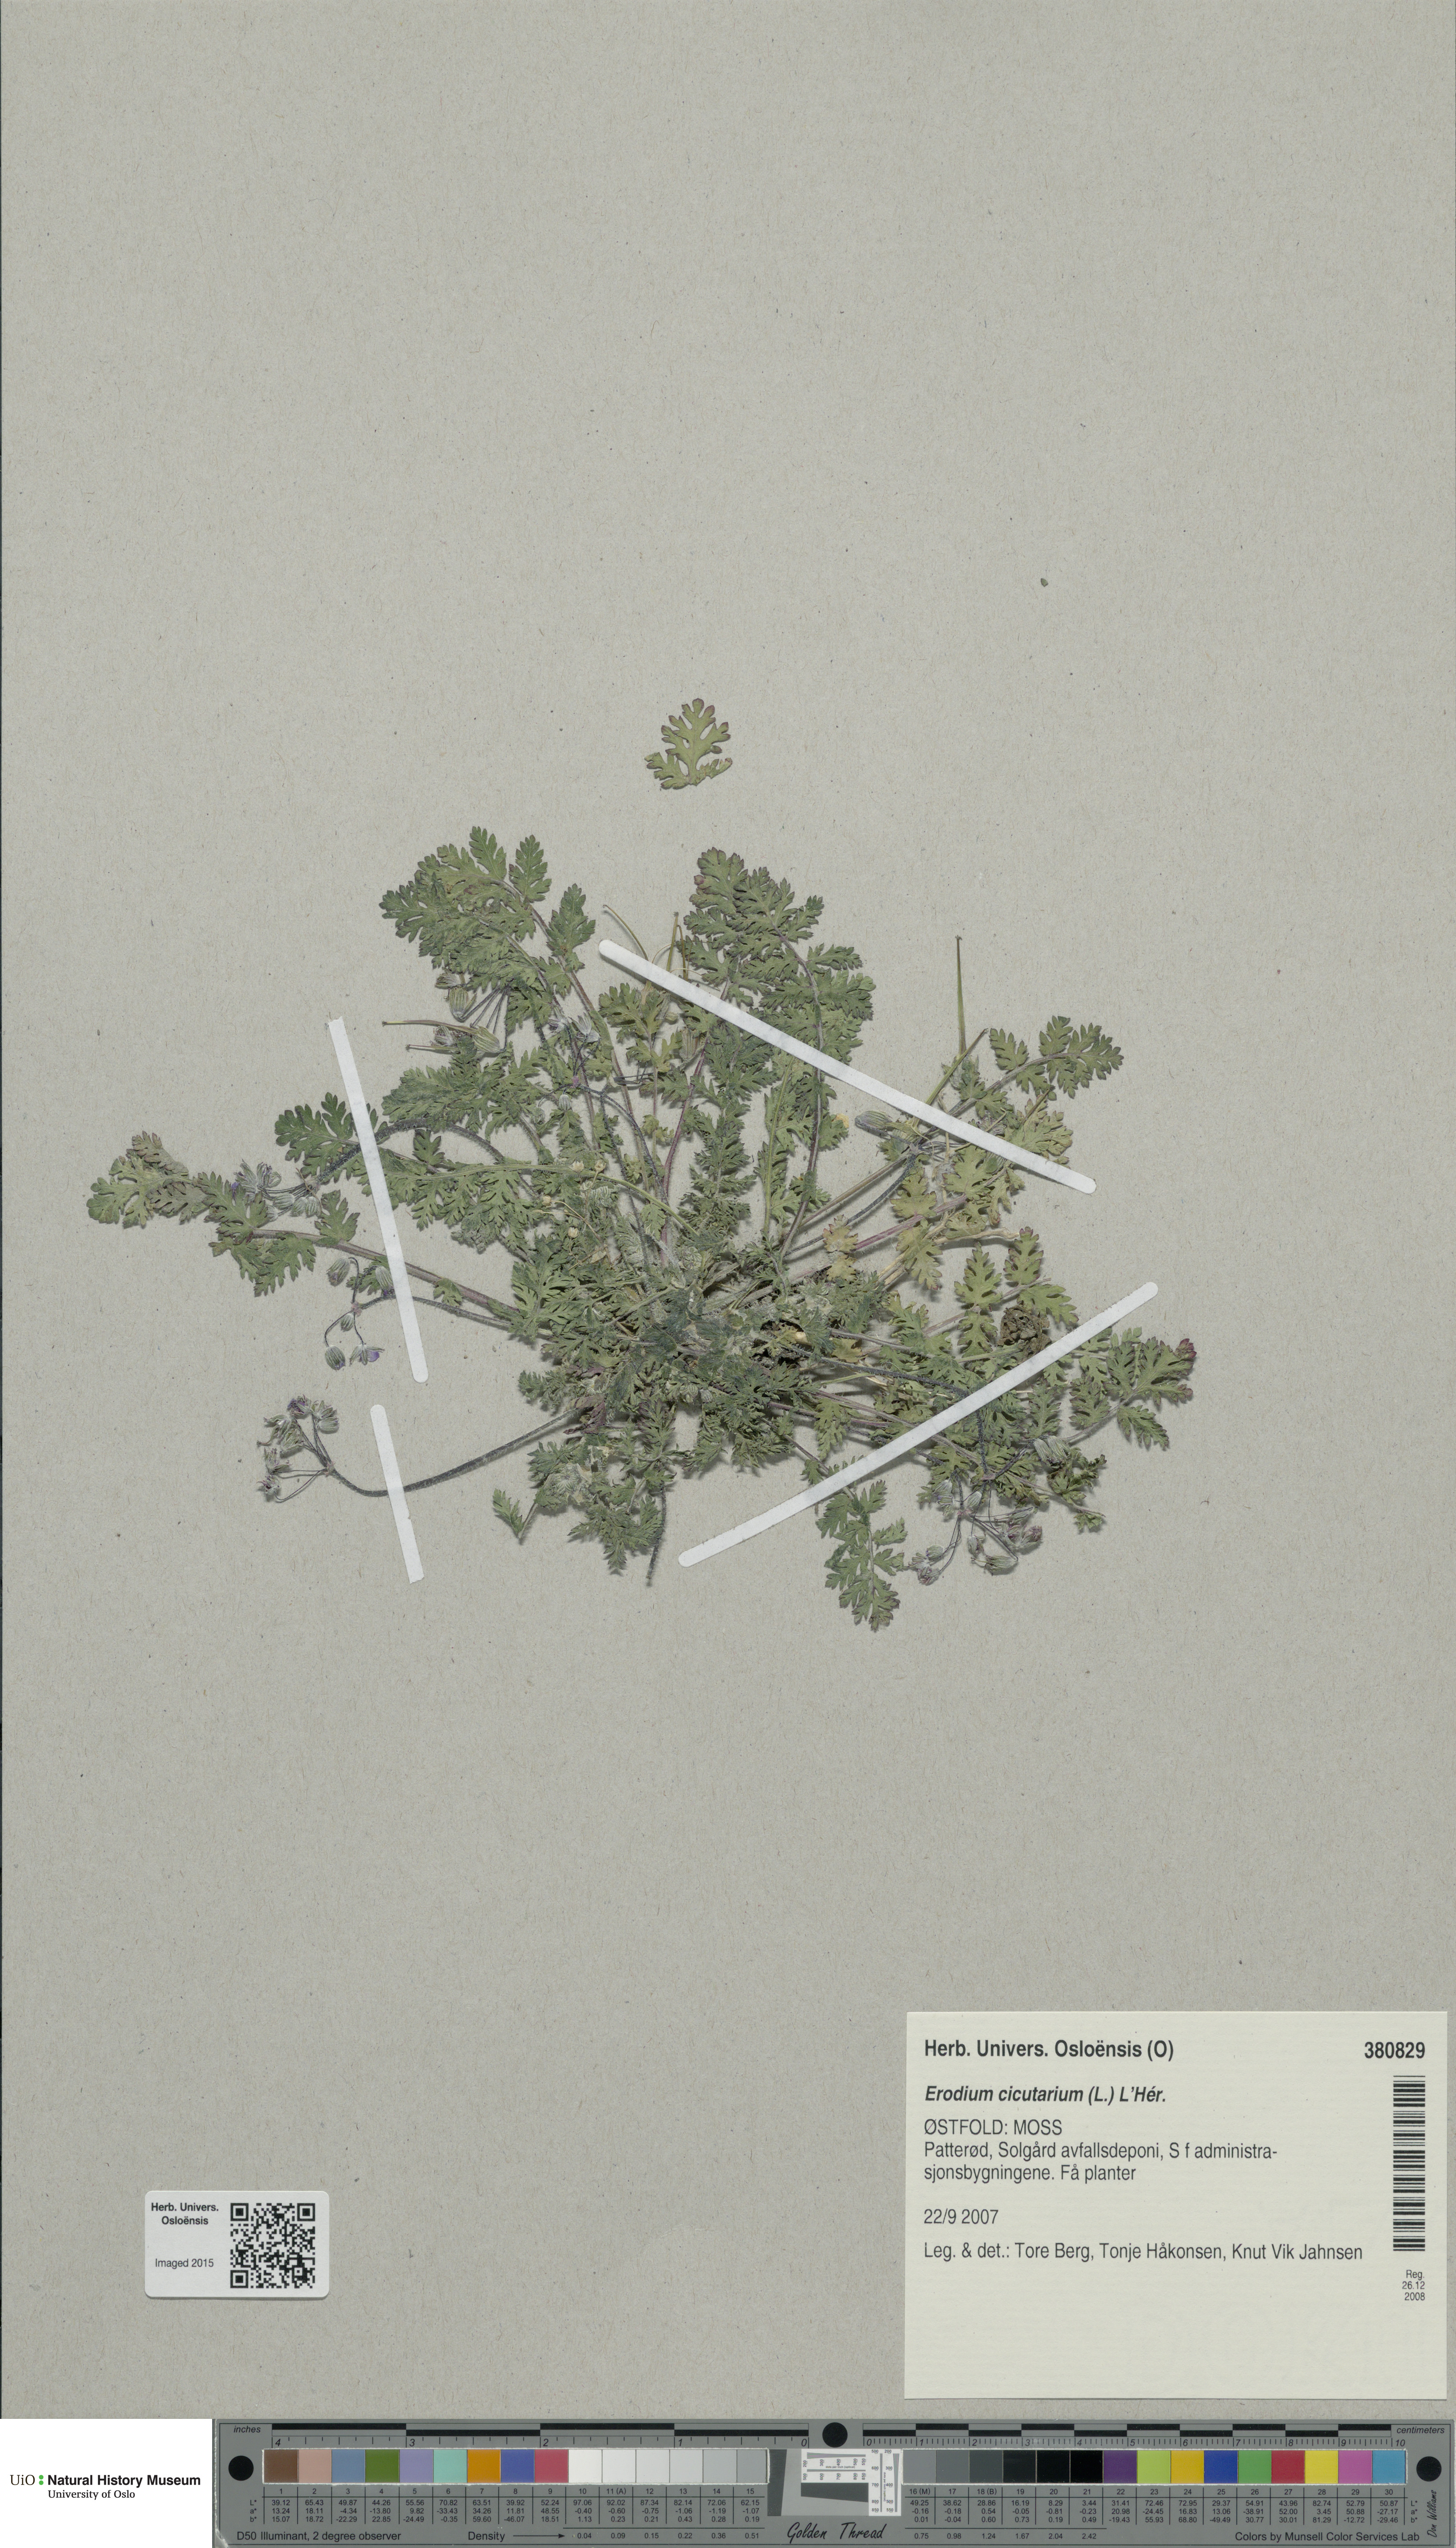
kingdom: Plantae
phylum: Tracheophyta
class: Magnoliopsida
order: Geraniales
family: Geraniaceae
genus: Erodium
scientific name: Erodium cicutarium
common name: Common stork's-bill
